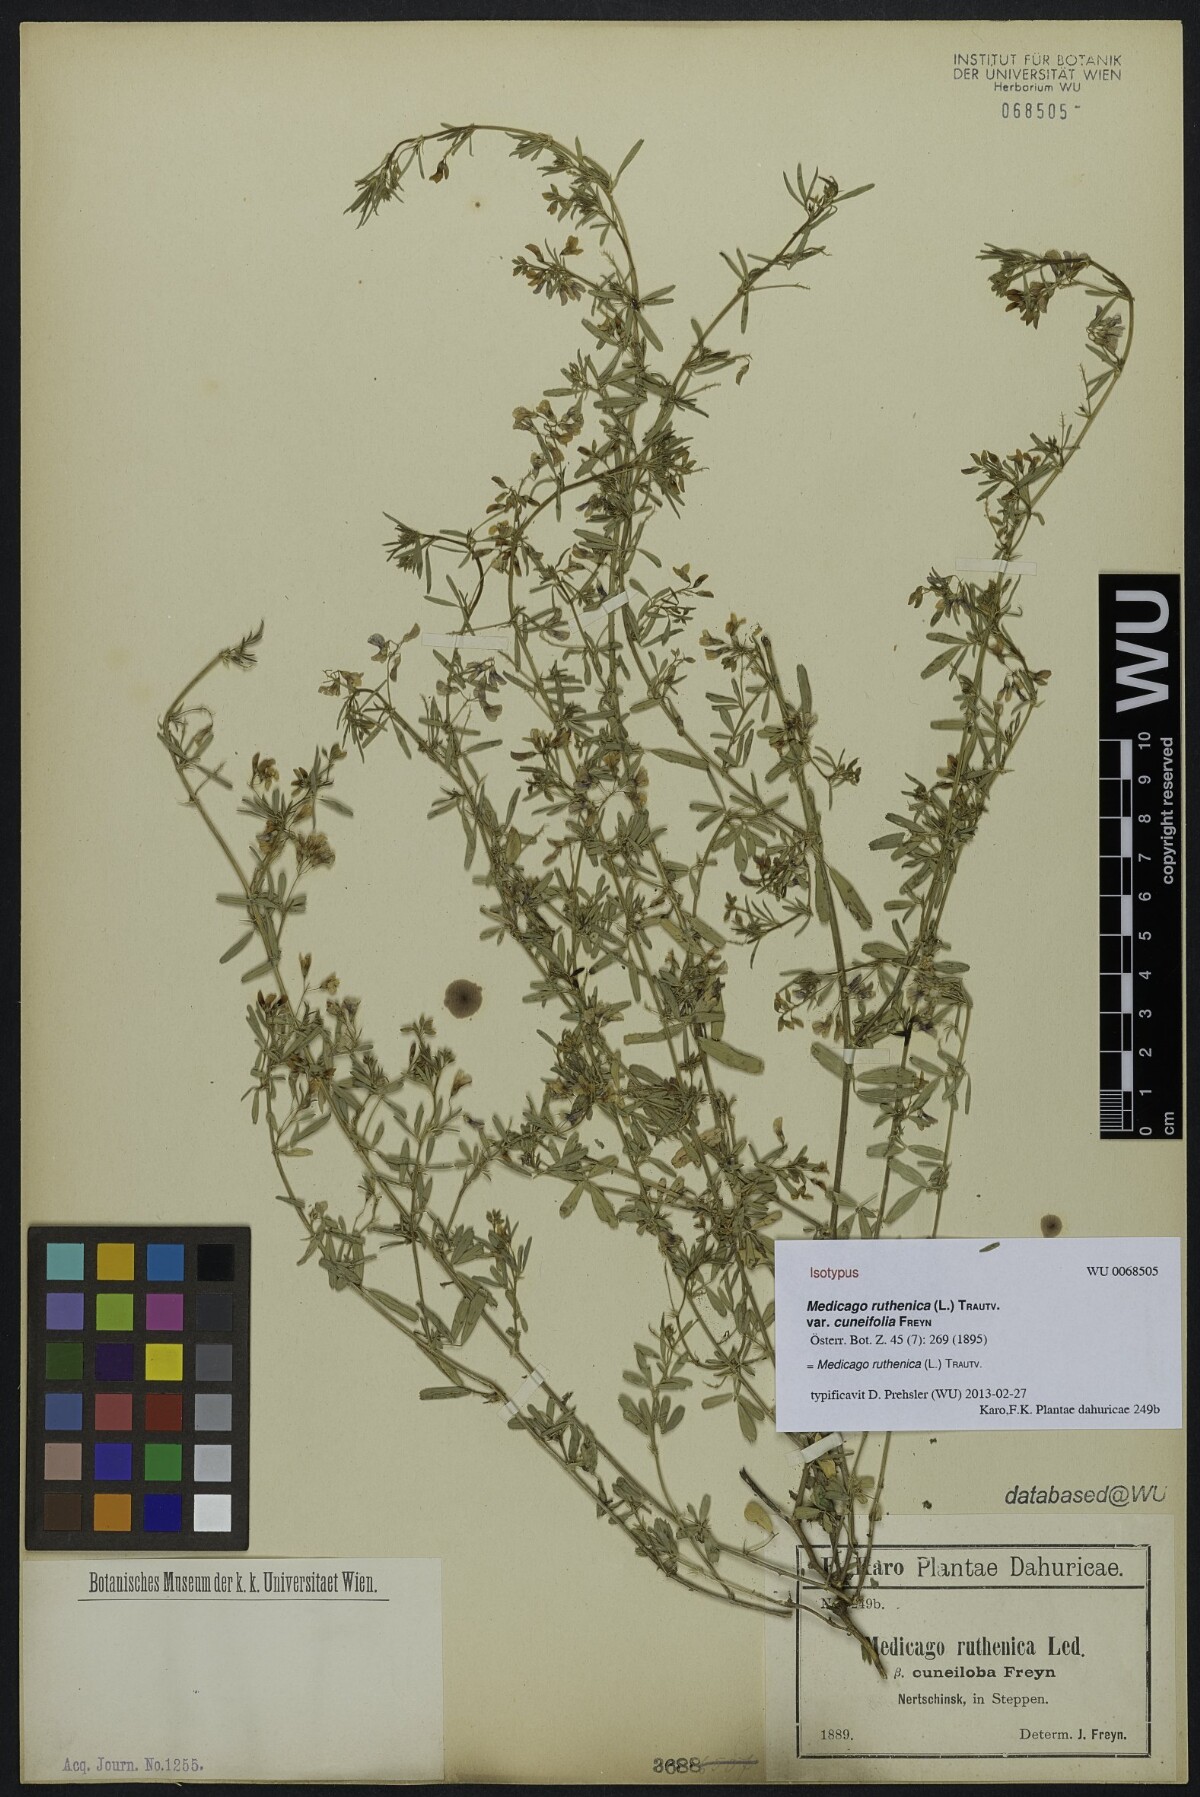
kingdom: Plantae
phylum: Tracheophyta
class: Magnoliopsida
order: Fabales
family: Fabaceae
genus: Medicago
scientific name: Medicago ruthenica
